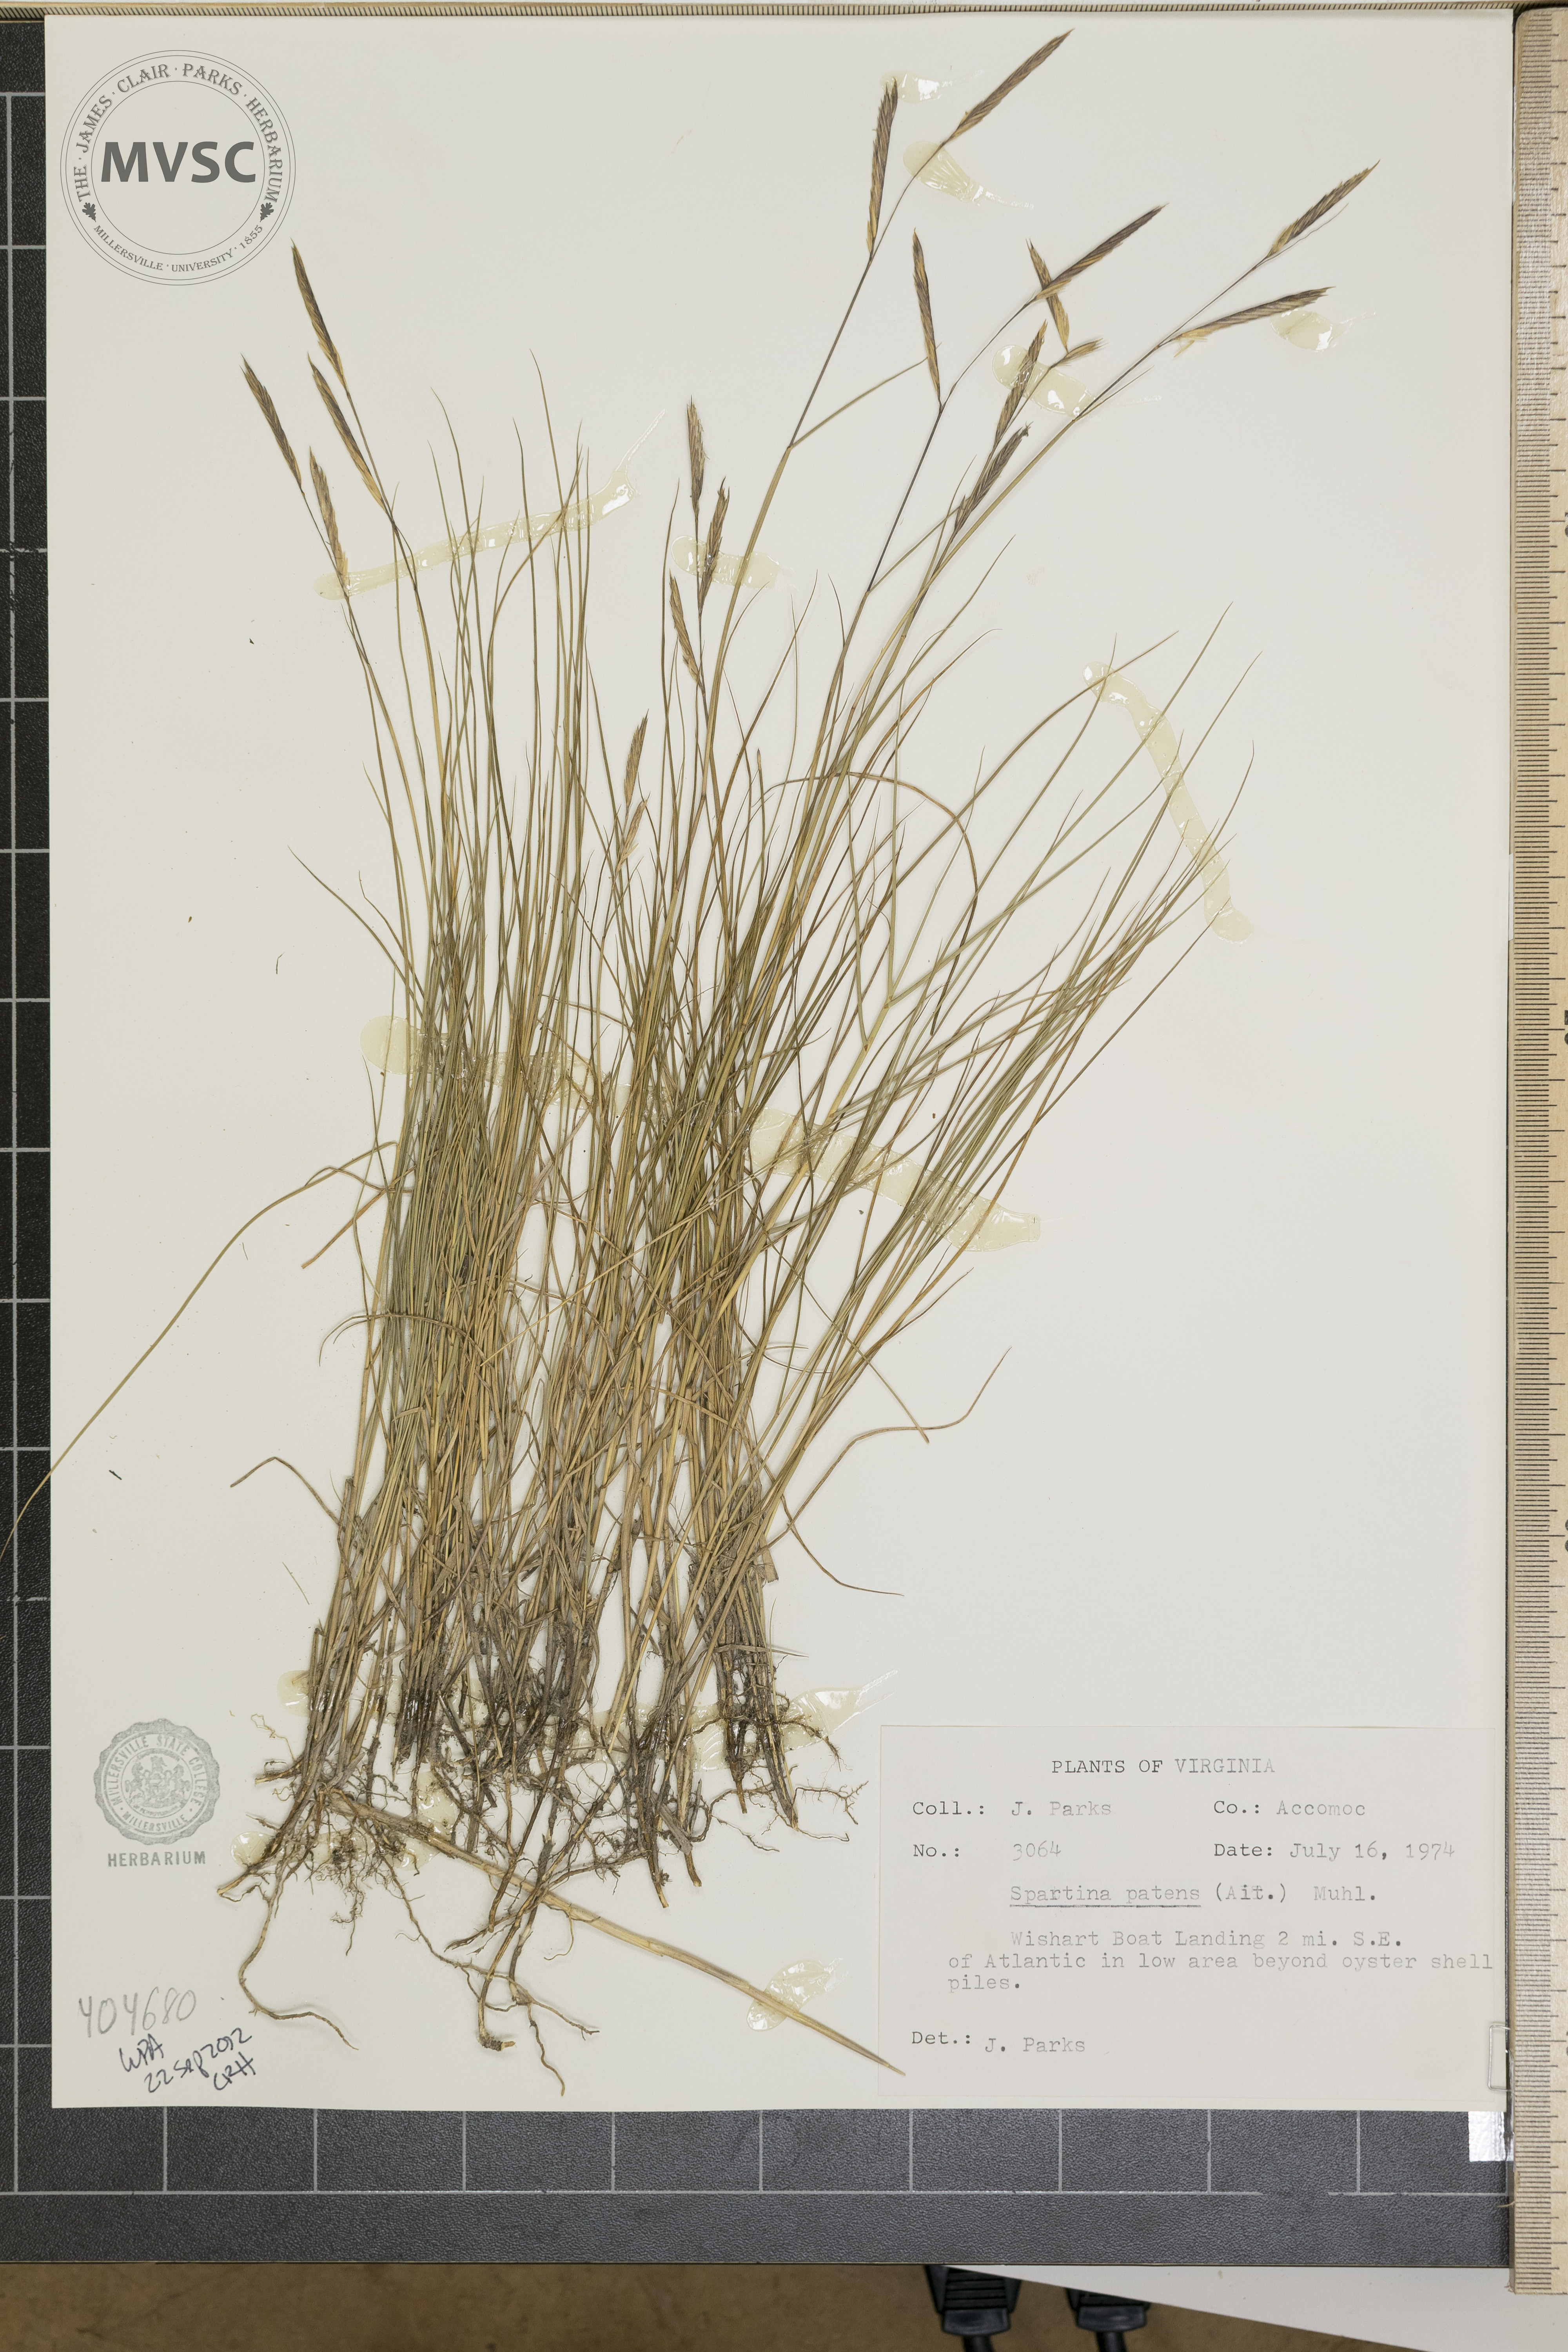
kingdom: Plantae
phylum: Tracheophyta
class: Liliopsida
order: Poales
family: Poaceae
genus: Sporobolus
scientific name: Sporobolus pumilus
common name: Highwater grass
